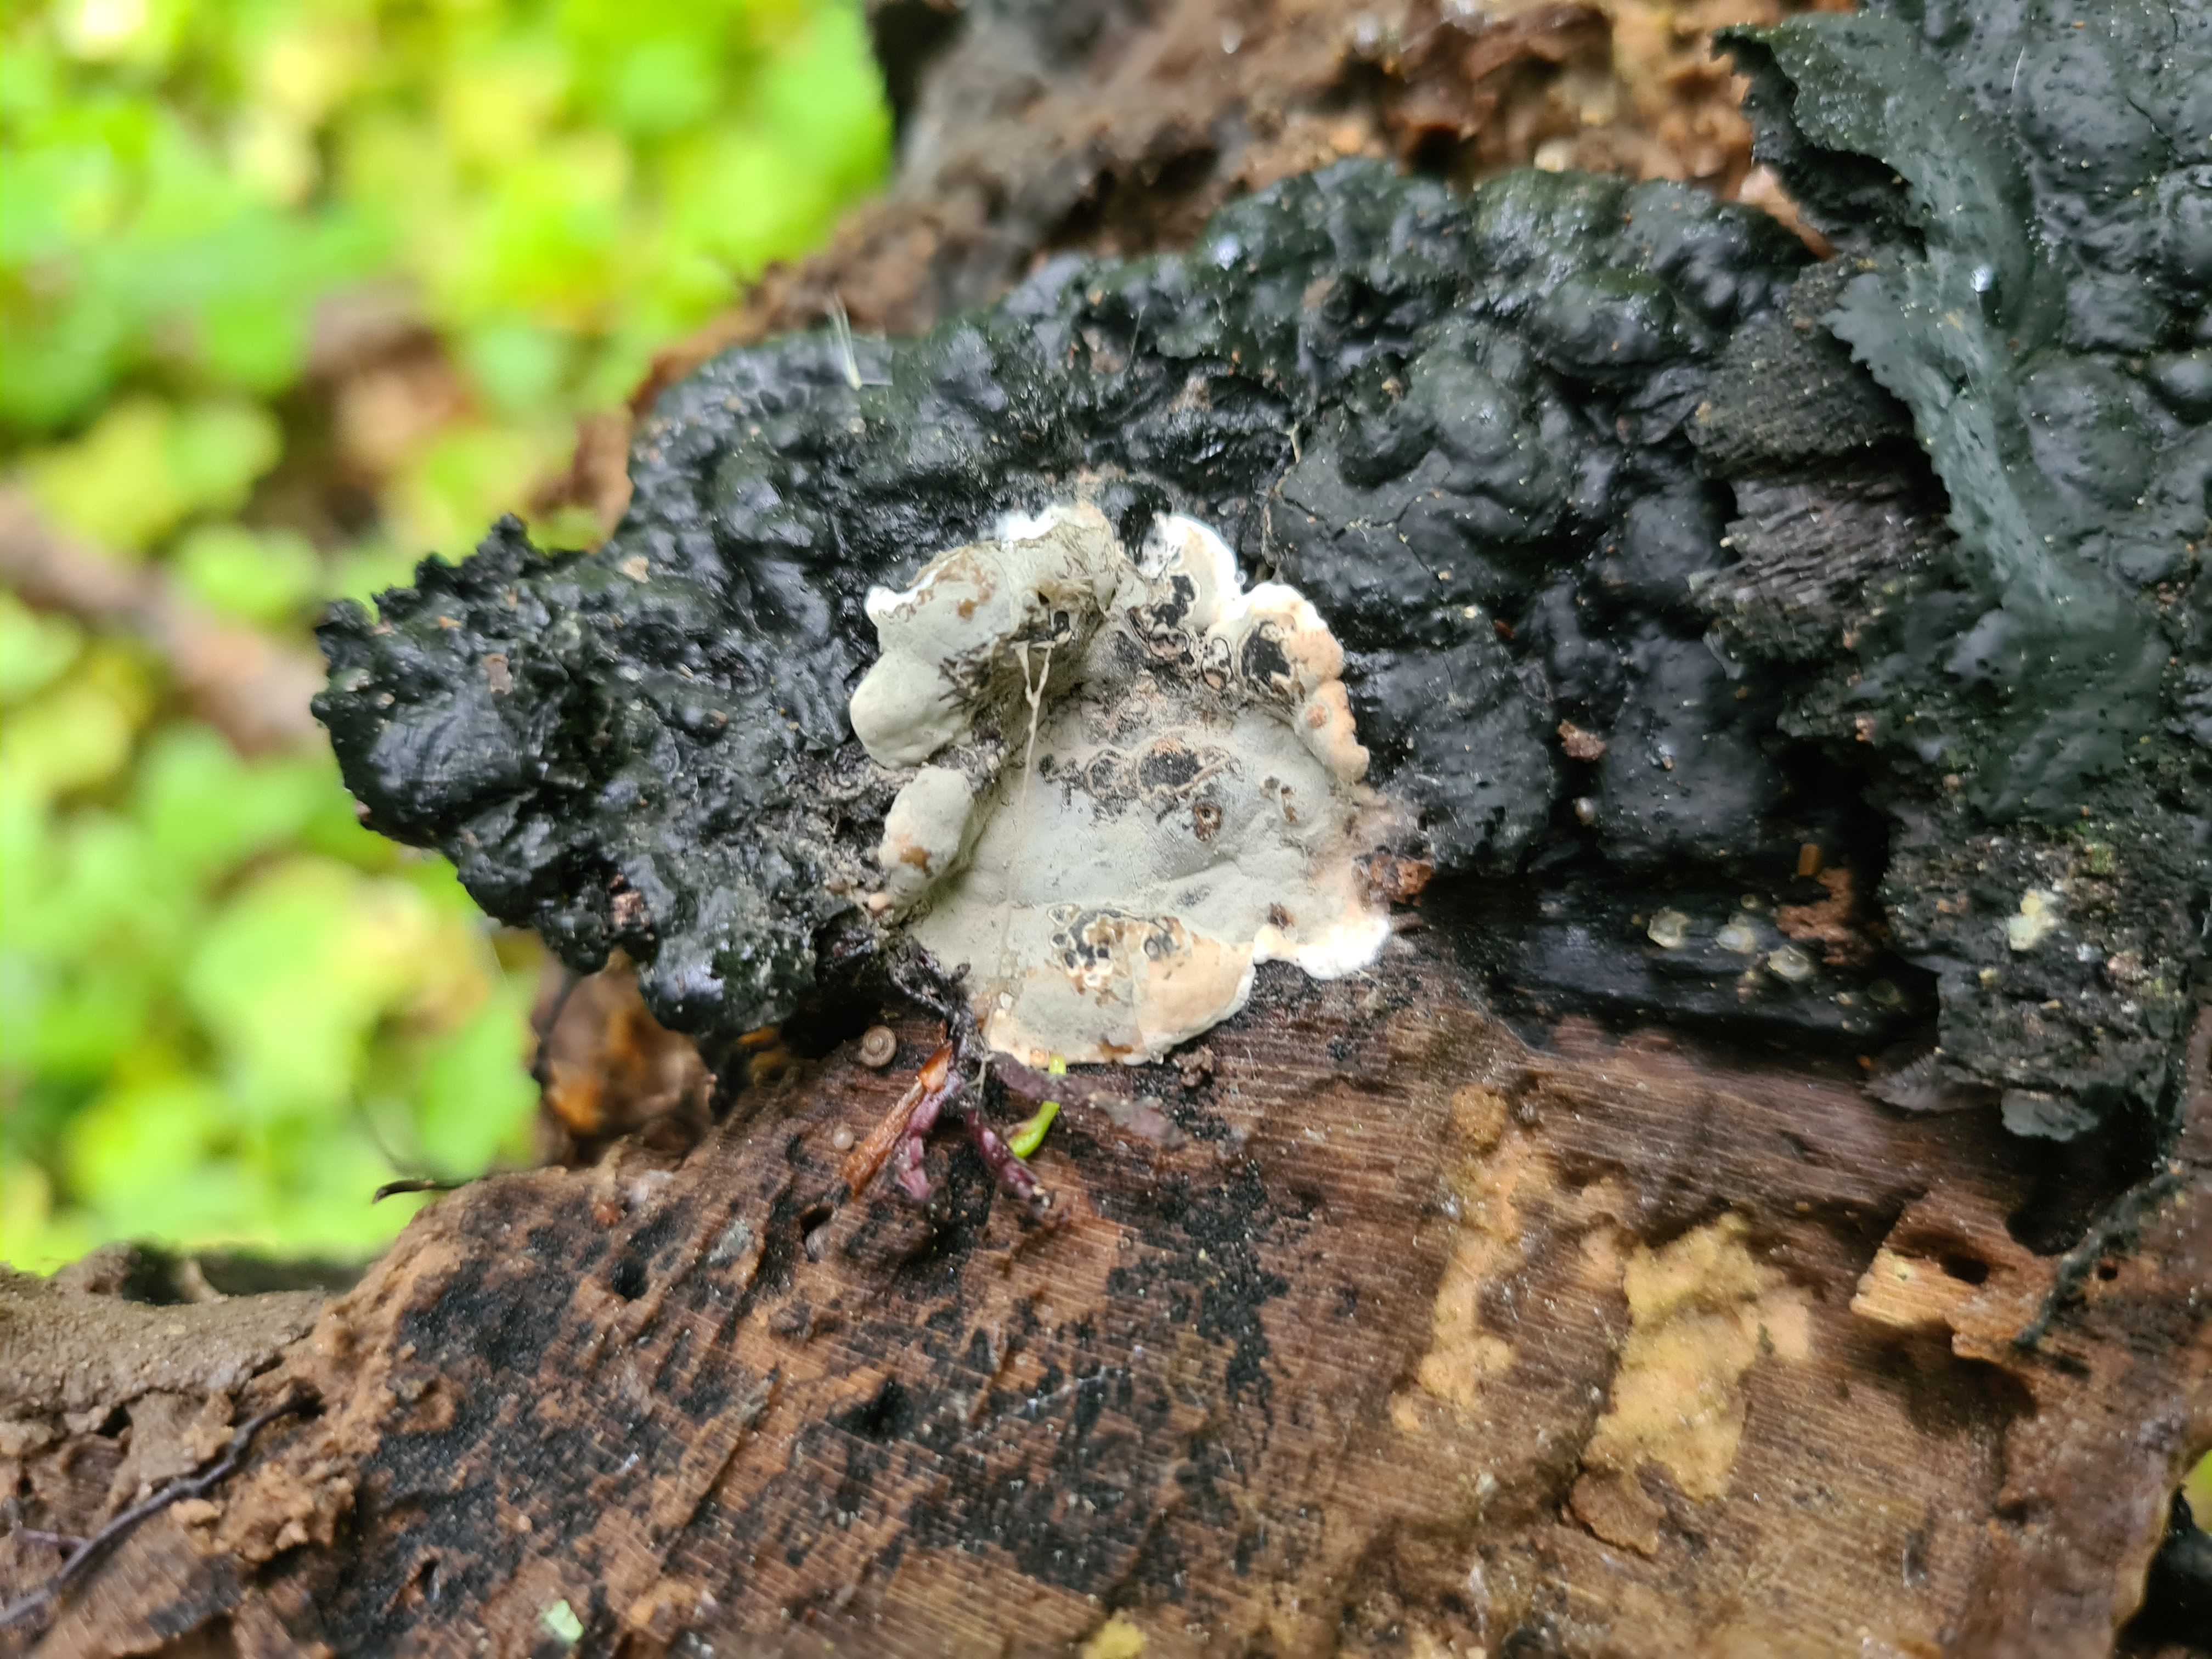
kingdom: Fungi
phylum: Ascomycota
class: Sordariomycetes
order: Xylariales
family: Xylariaceae
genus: Kretzschmaria
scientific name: Kretzschmaria deusta
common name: stor kulsvamp
